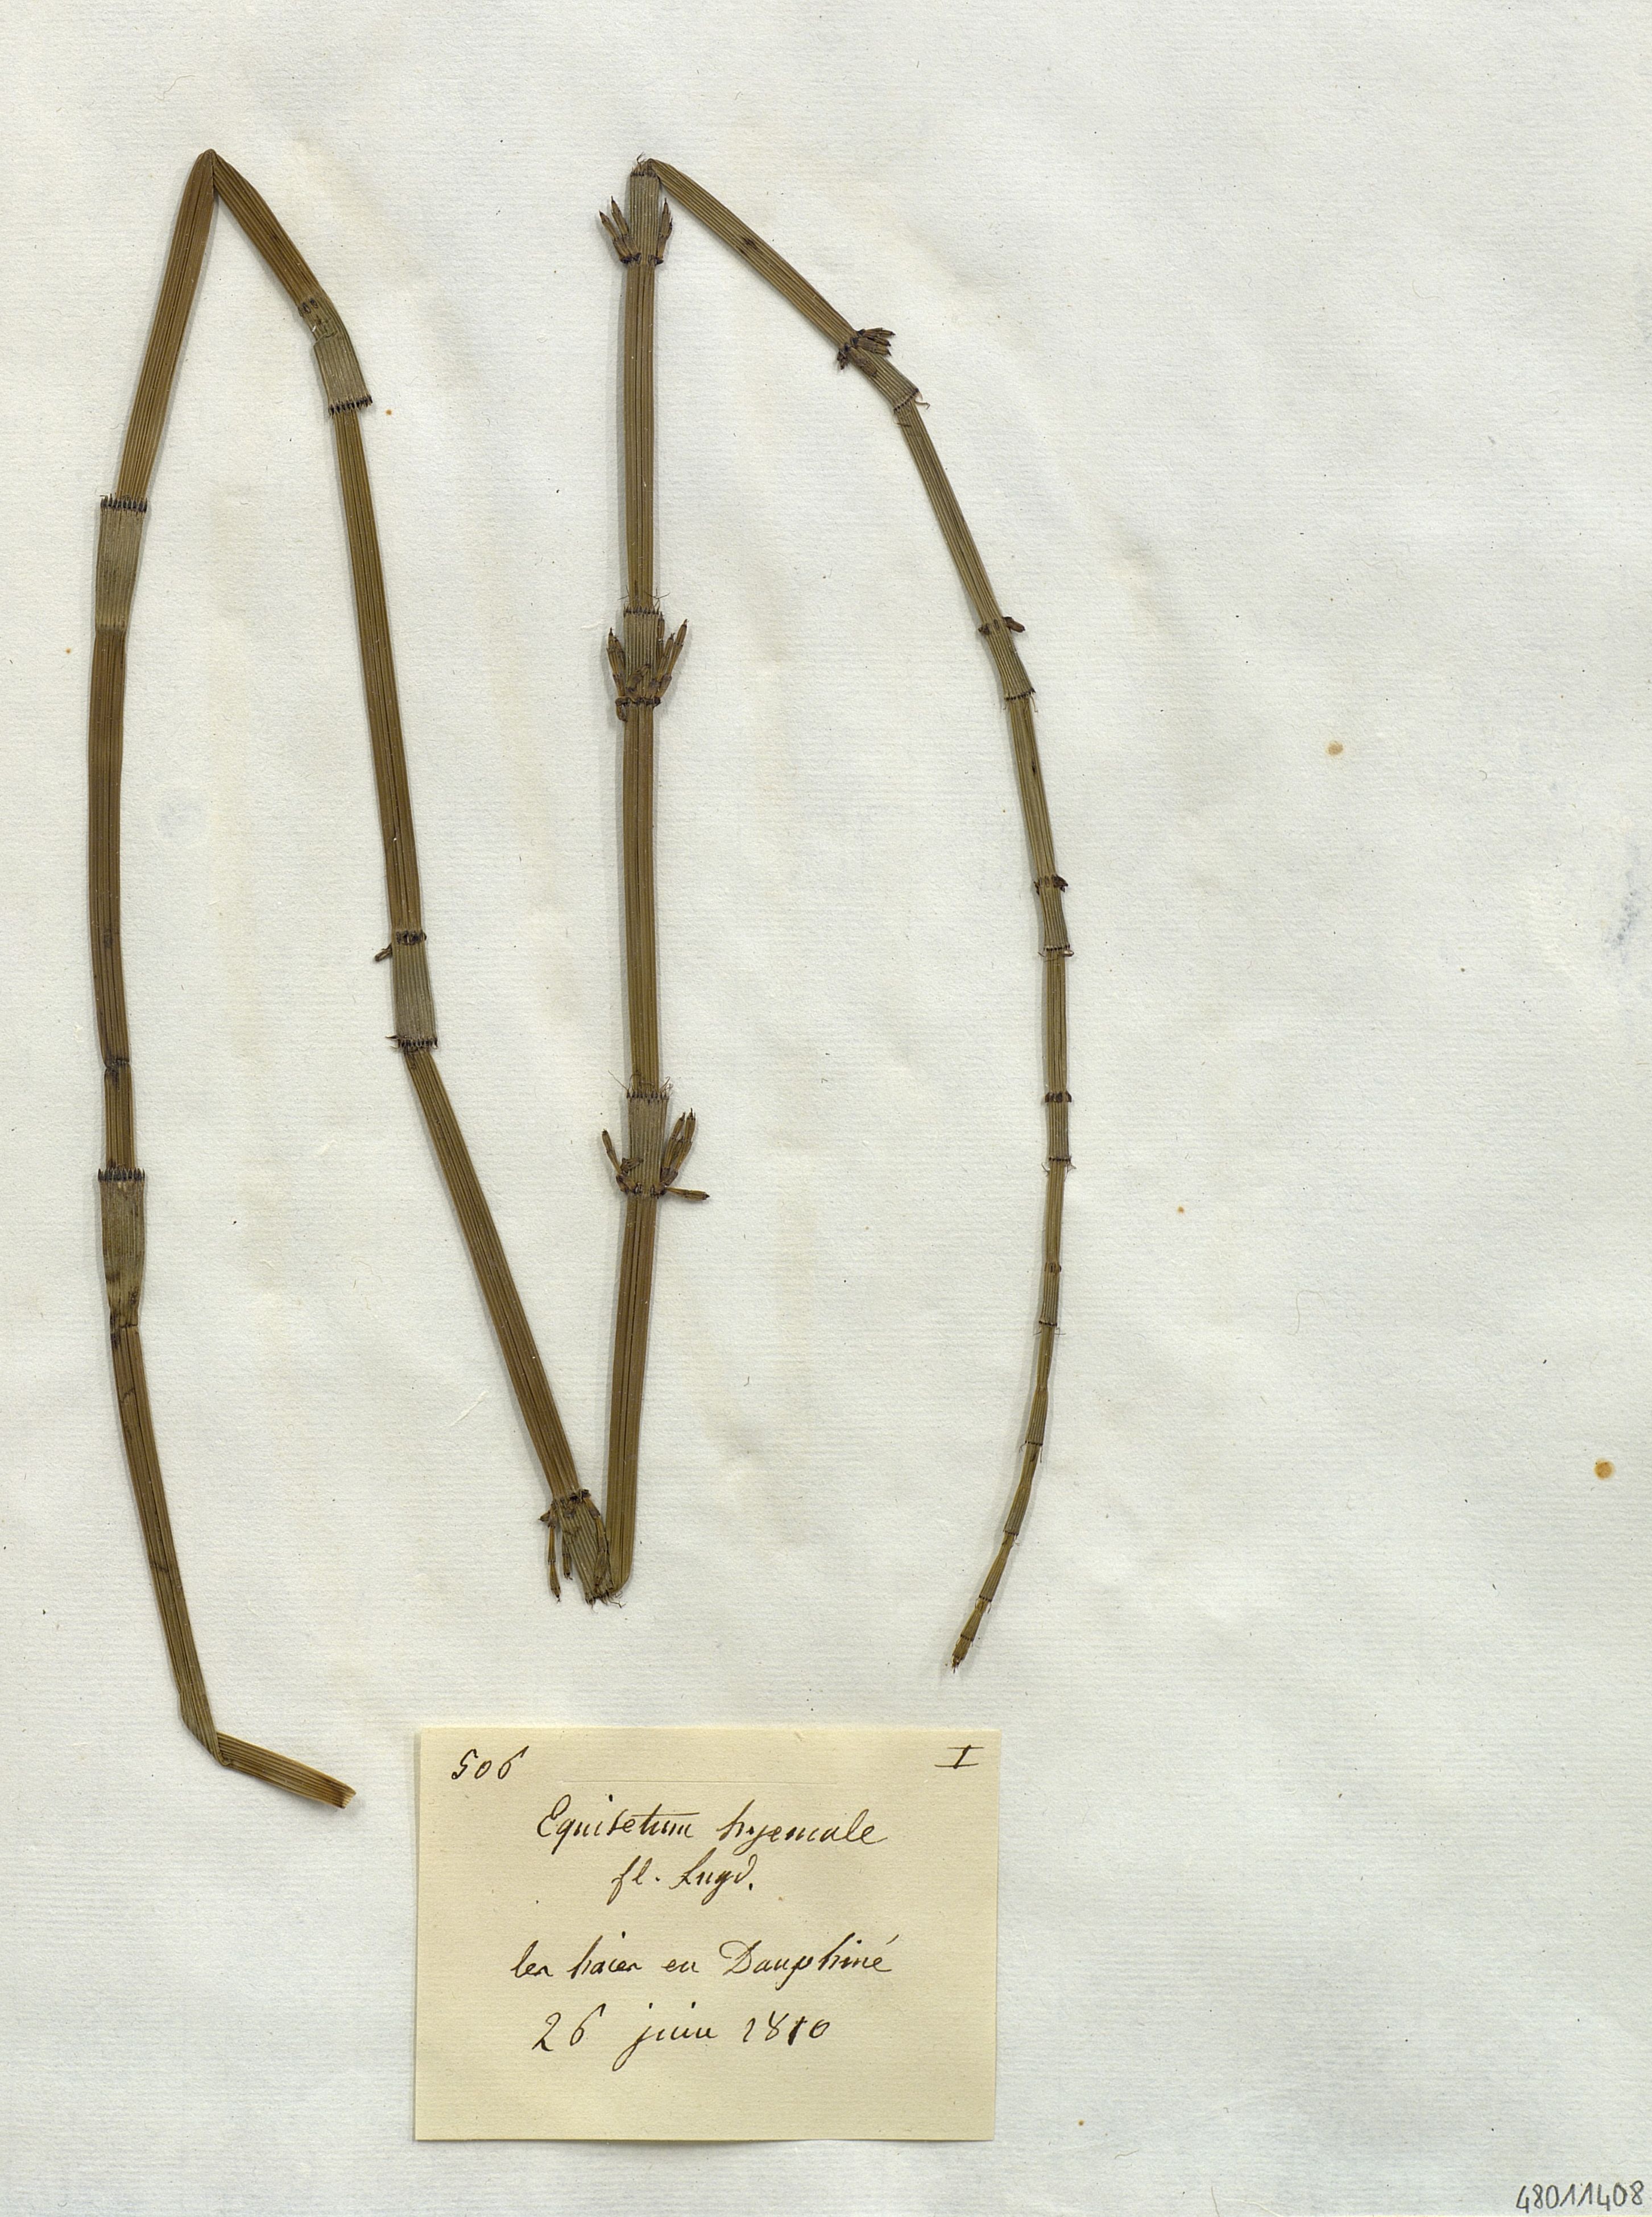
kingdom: Plantae
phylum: Tracheophyta
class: Polypodiopsida
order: Equisetales
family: Equisetaceae
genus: Equisetum
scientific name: Equisetum hyemale
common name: Rough horsetail
